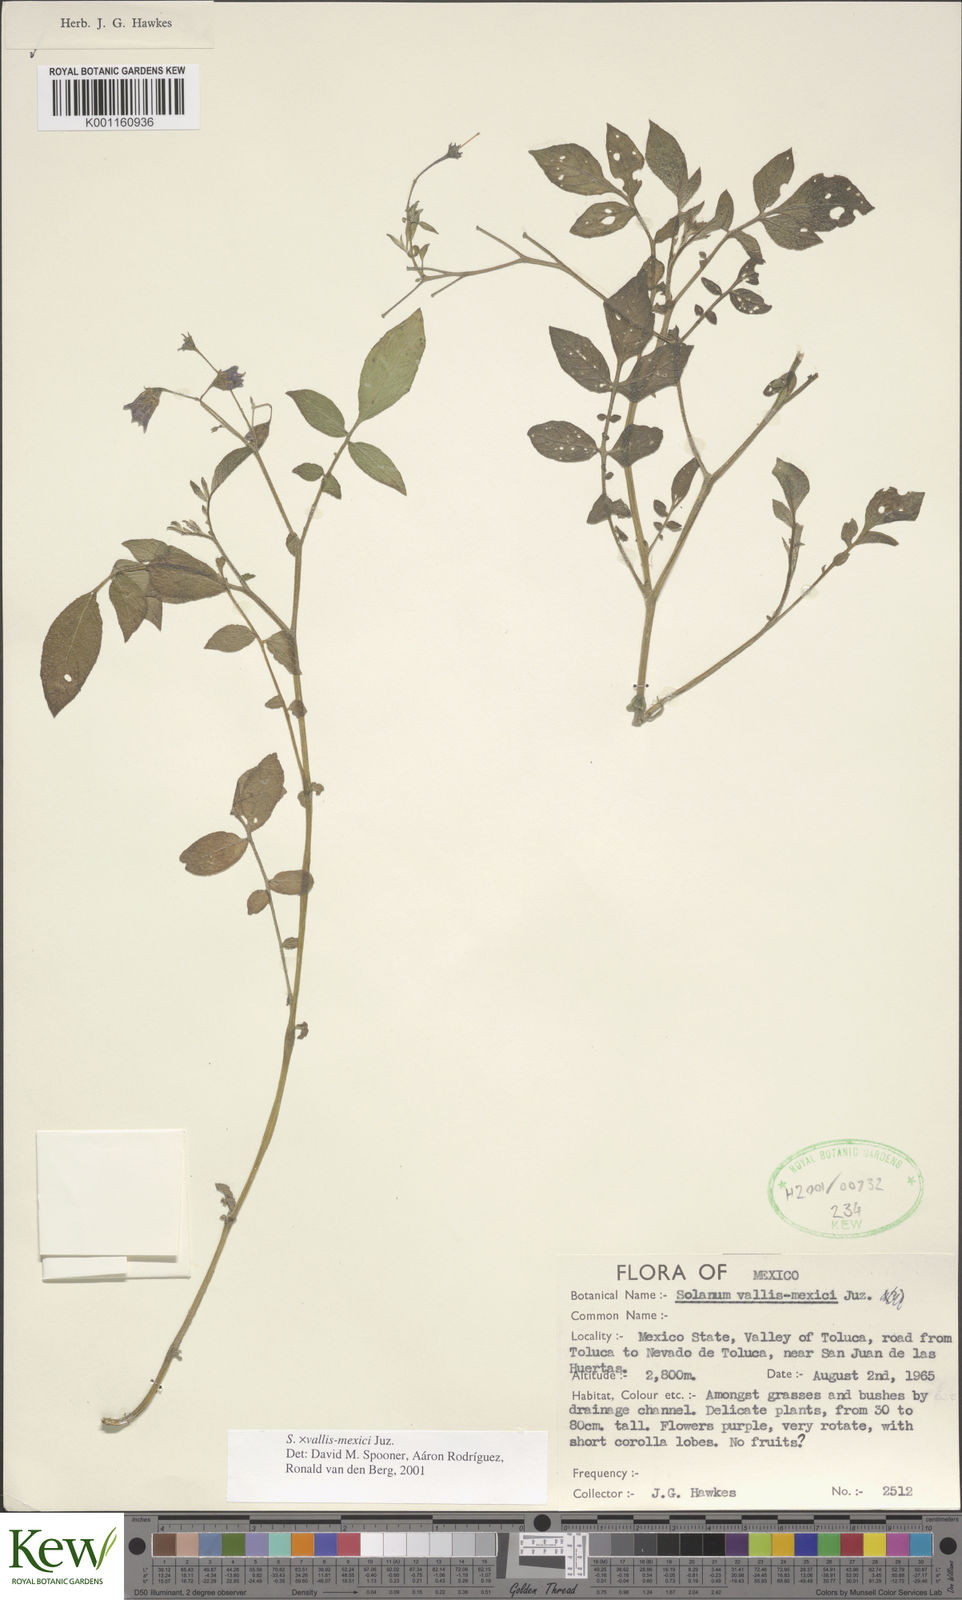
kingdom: Plantae
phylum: Tracheophyta
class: Magnoliopsida
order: Solanales
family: Solanaceae
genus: Solanum
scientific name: Solanum vallis-mexici
